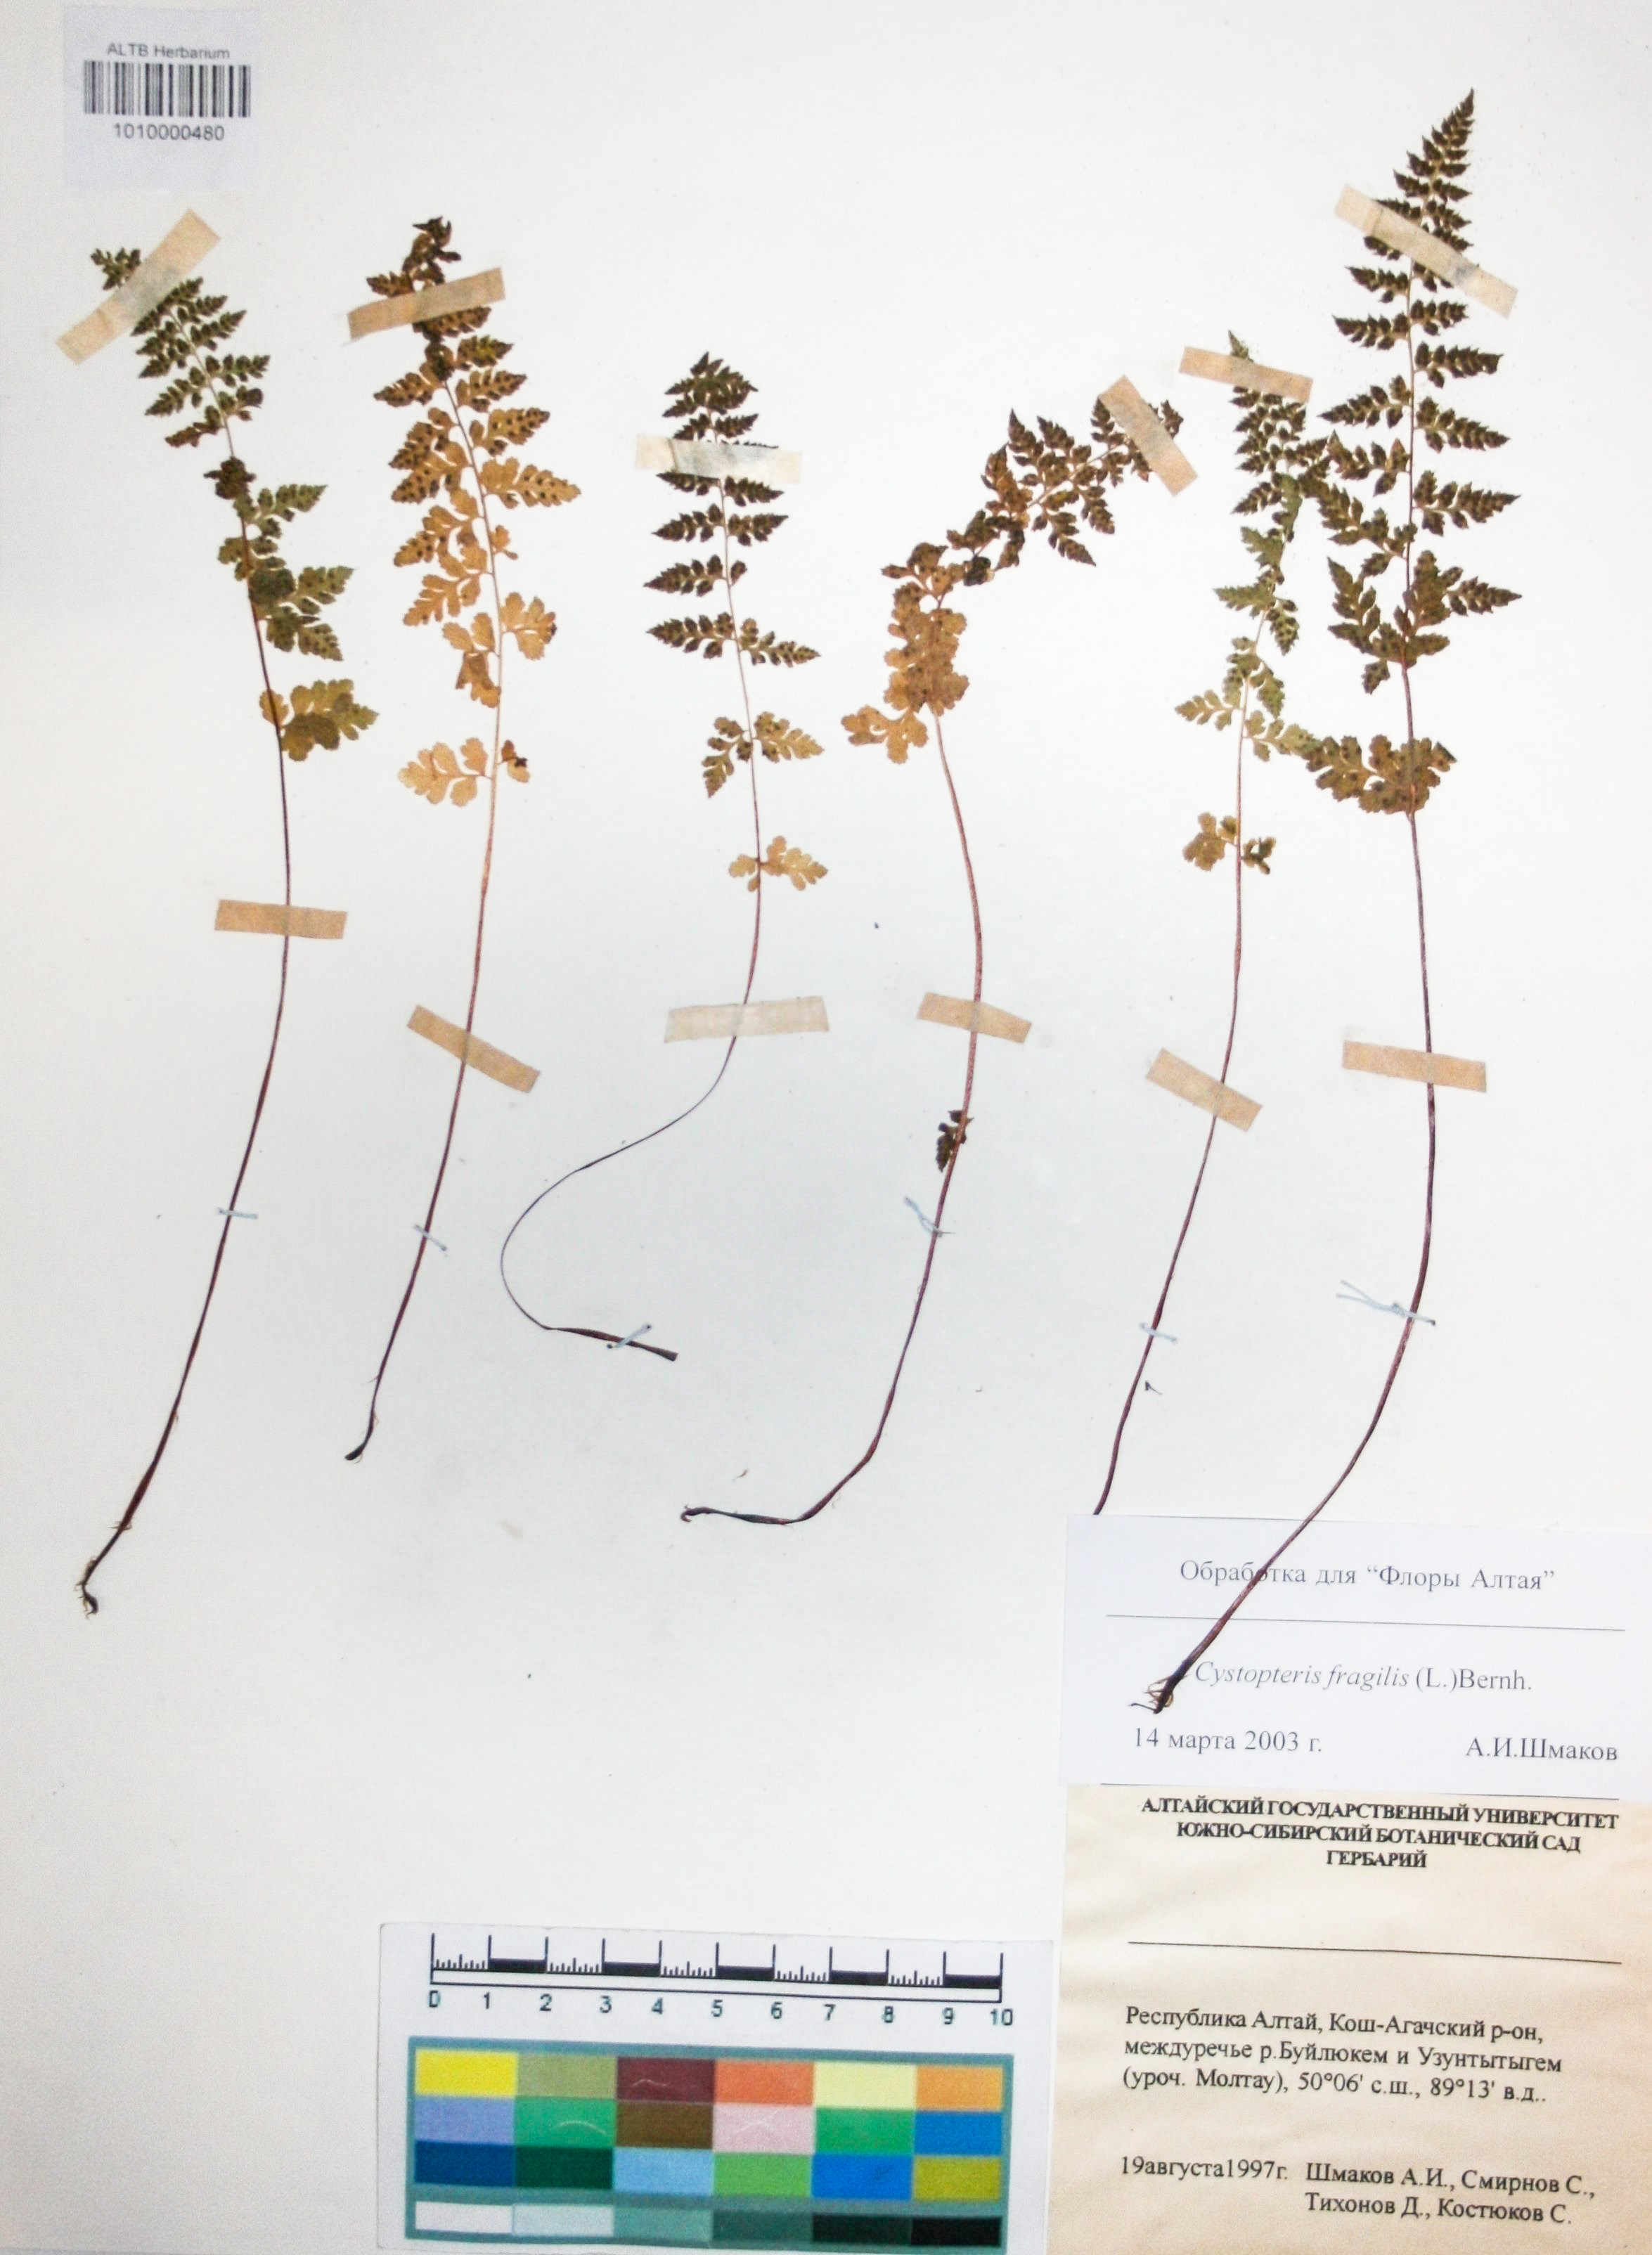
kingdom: Plantae
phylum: Tracheophyta
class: Polypodiopsida
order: Polypodiales
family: Cystopteridaceae
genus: Cystopteris
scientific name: Cystopteris dickieana
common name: Dickie's bladder-fern
